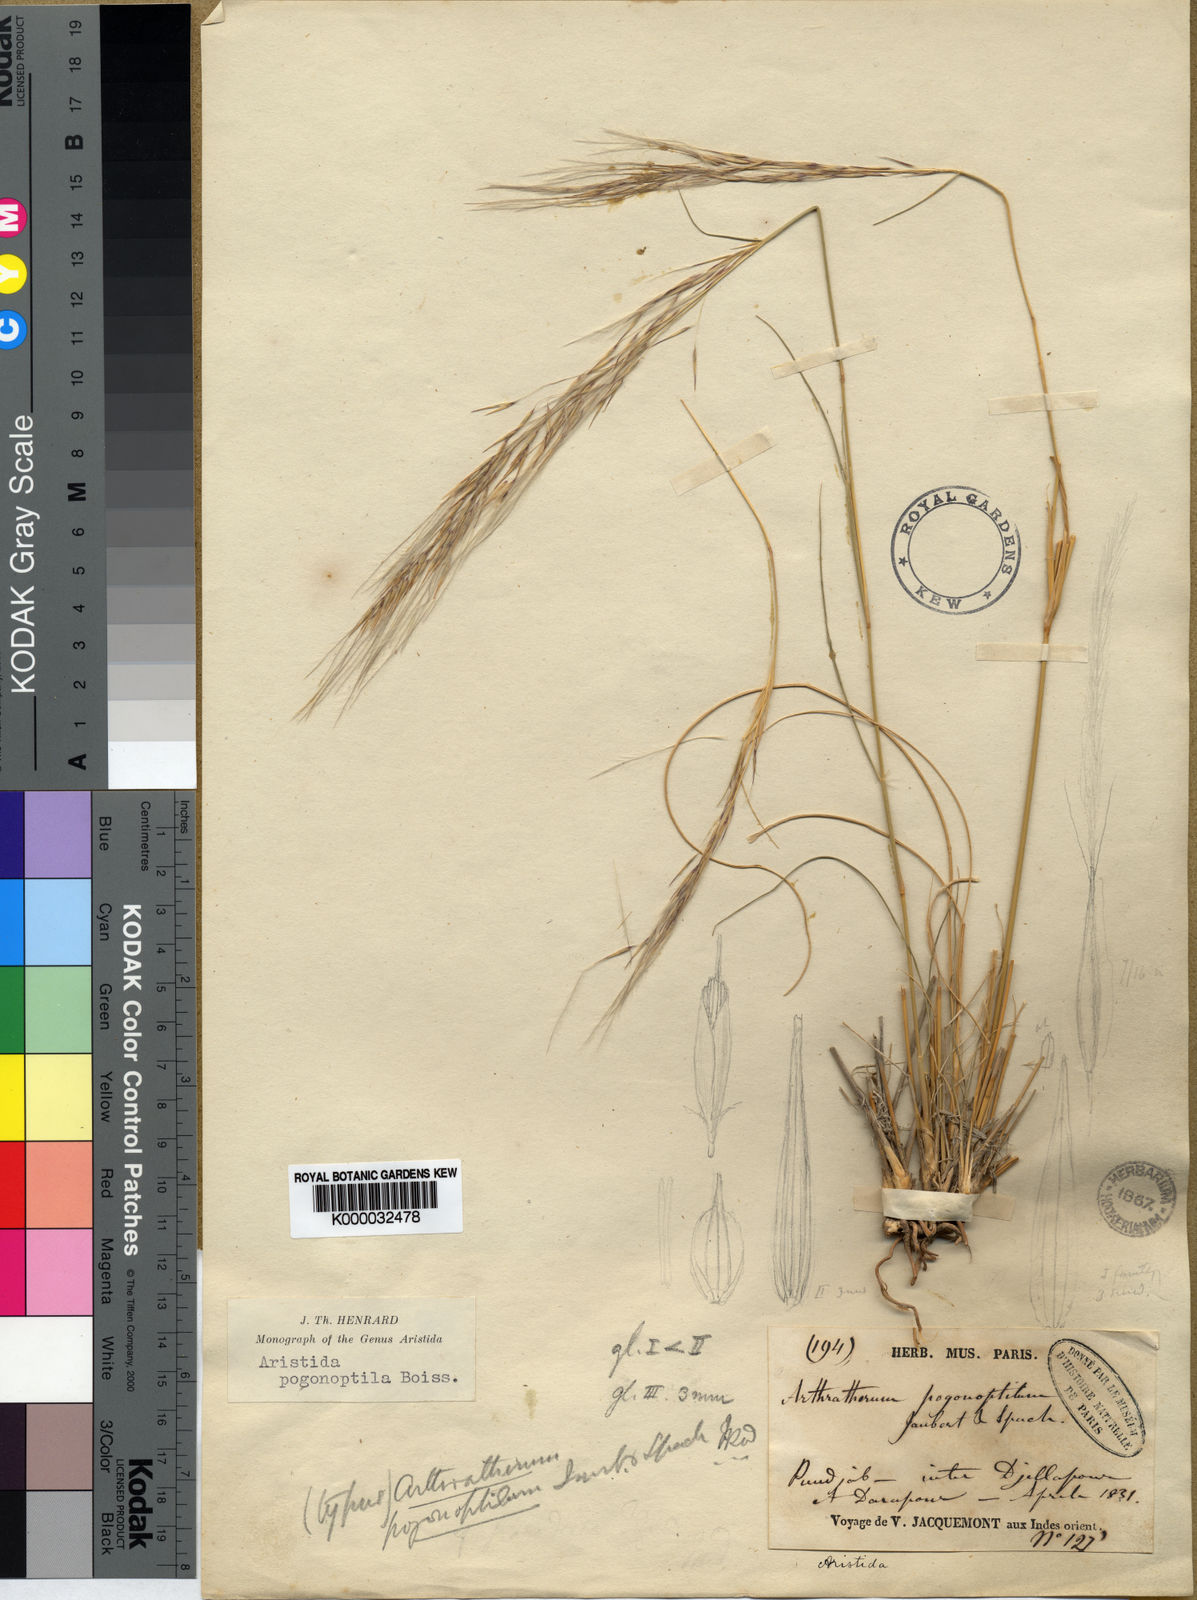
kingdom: Plantae
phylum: Tracheophyta
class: Liliopsida
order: Poales
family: Poaceae
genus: Stipagrostis
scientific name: Stipagrostis uniplumis
